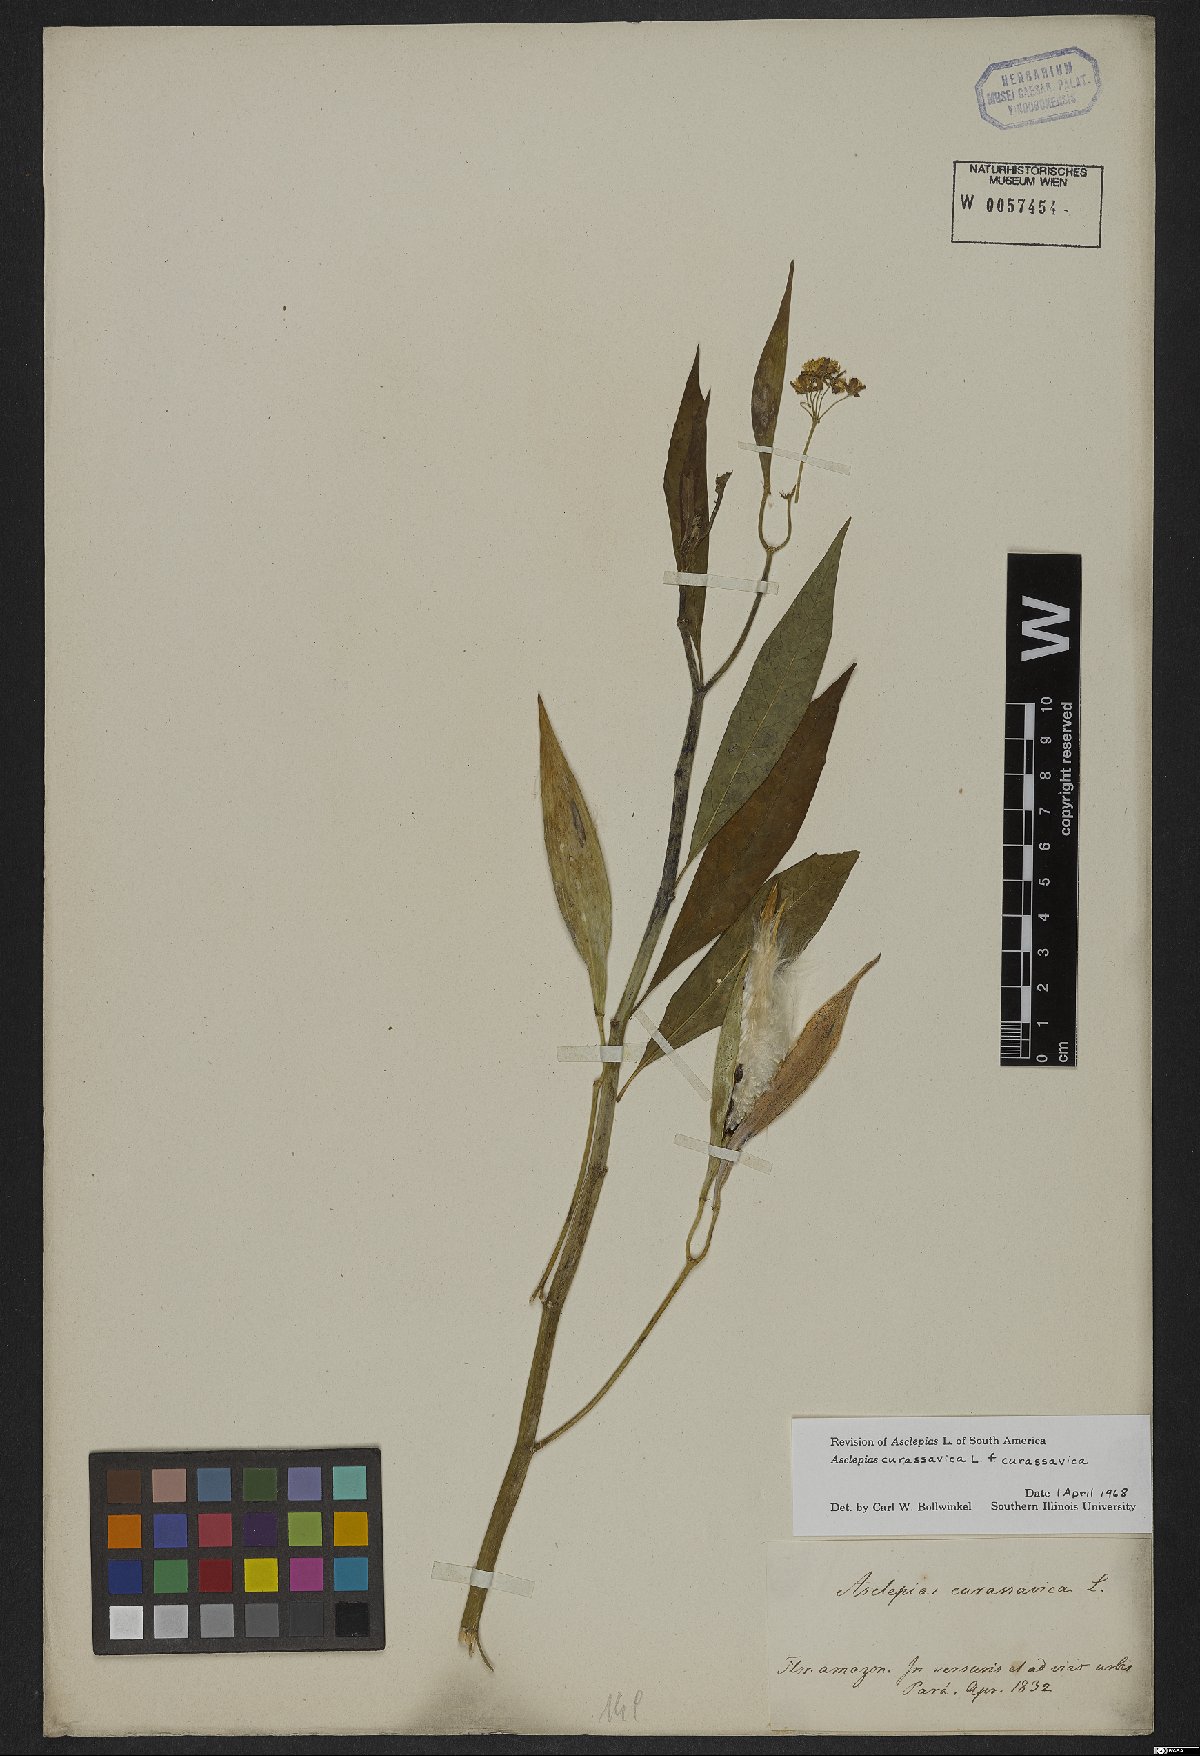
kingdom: Plantae
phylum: Tracheophyta
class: Magnoliopsida
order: Gentianales
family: Apocynaceae
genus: Asclepias
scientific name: Asclepias curassavica
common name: Bloodflower
